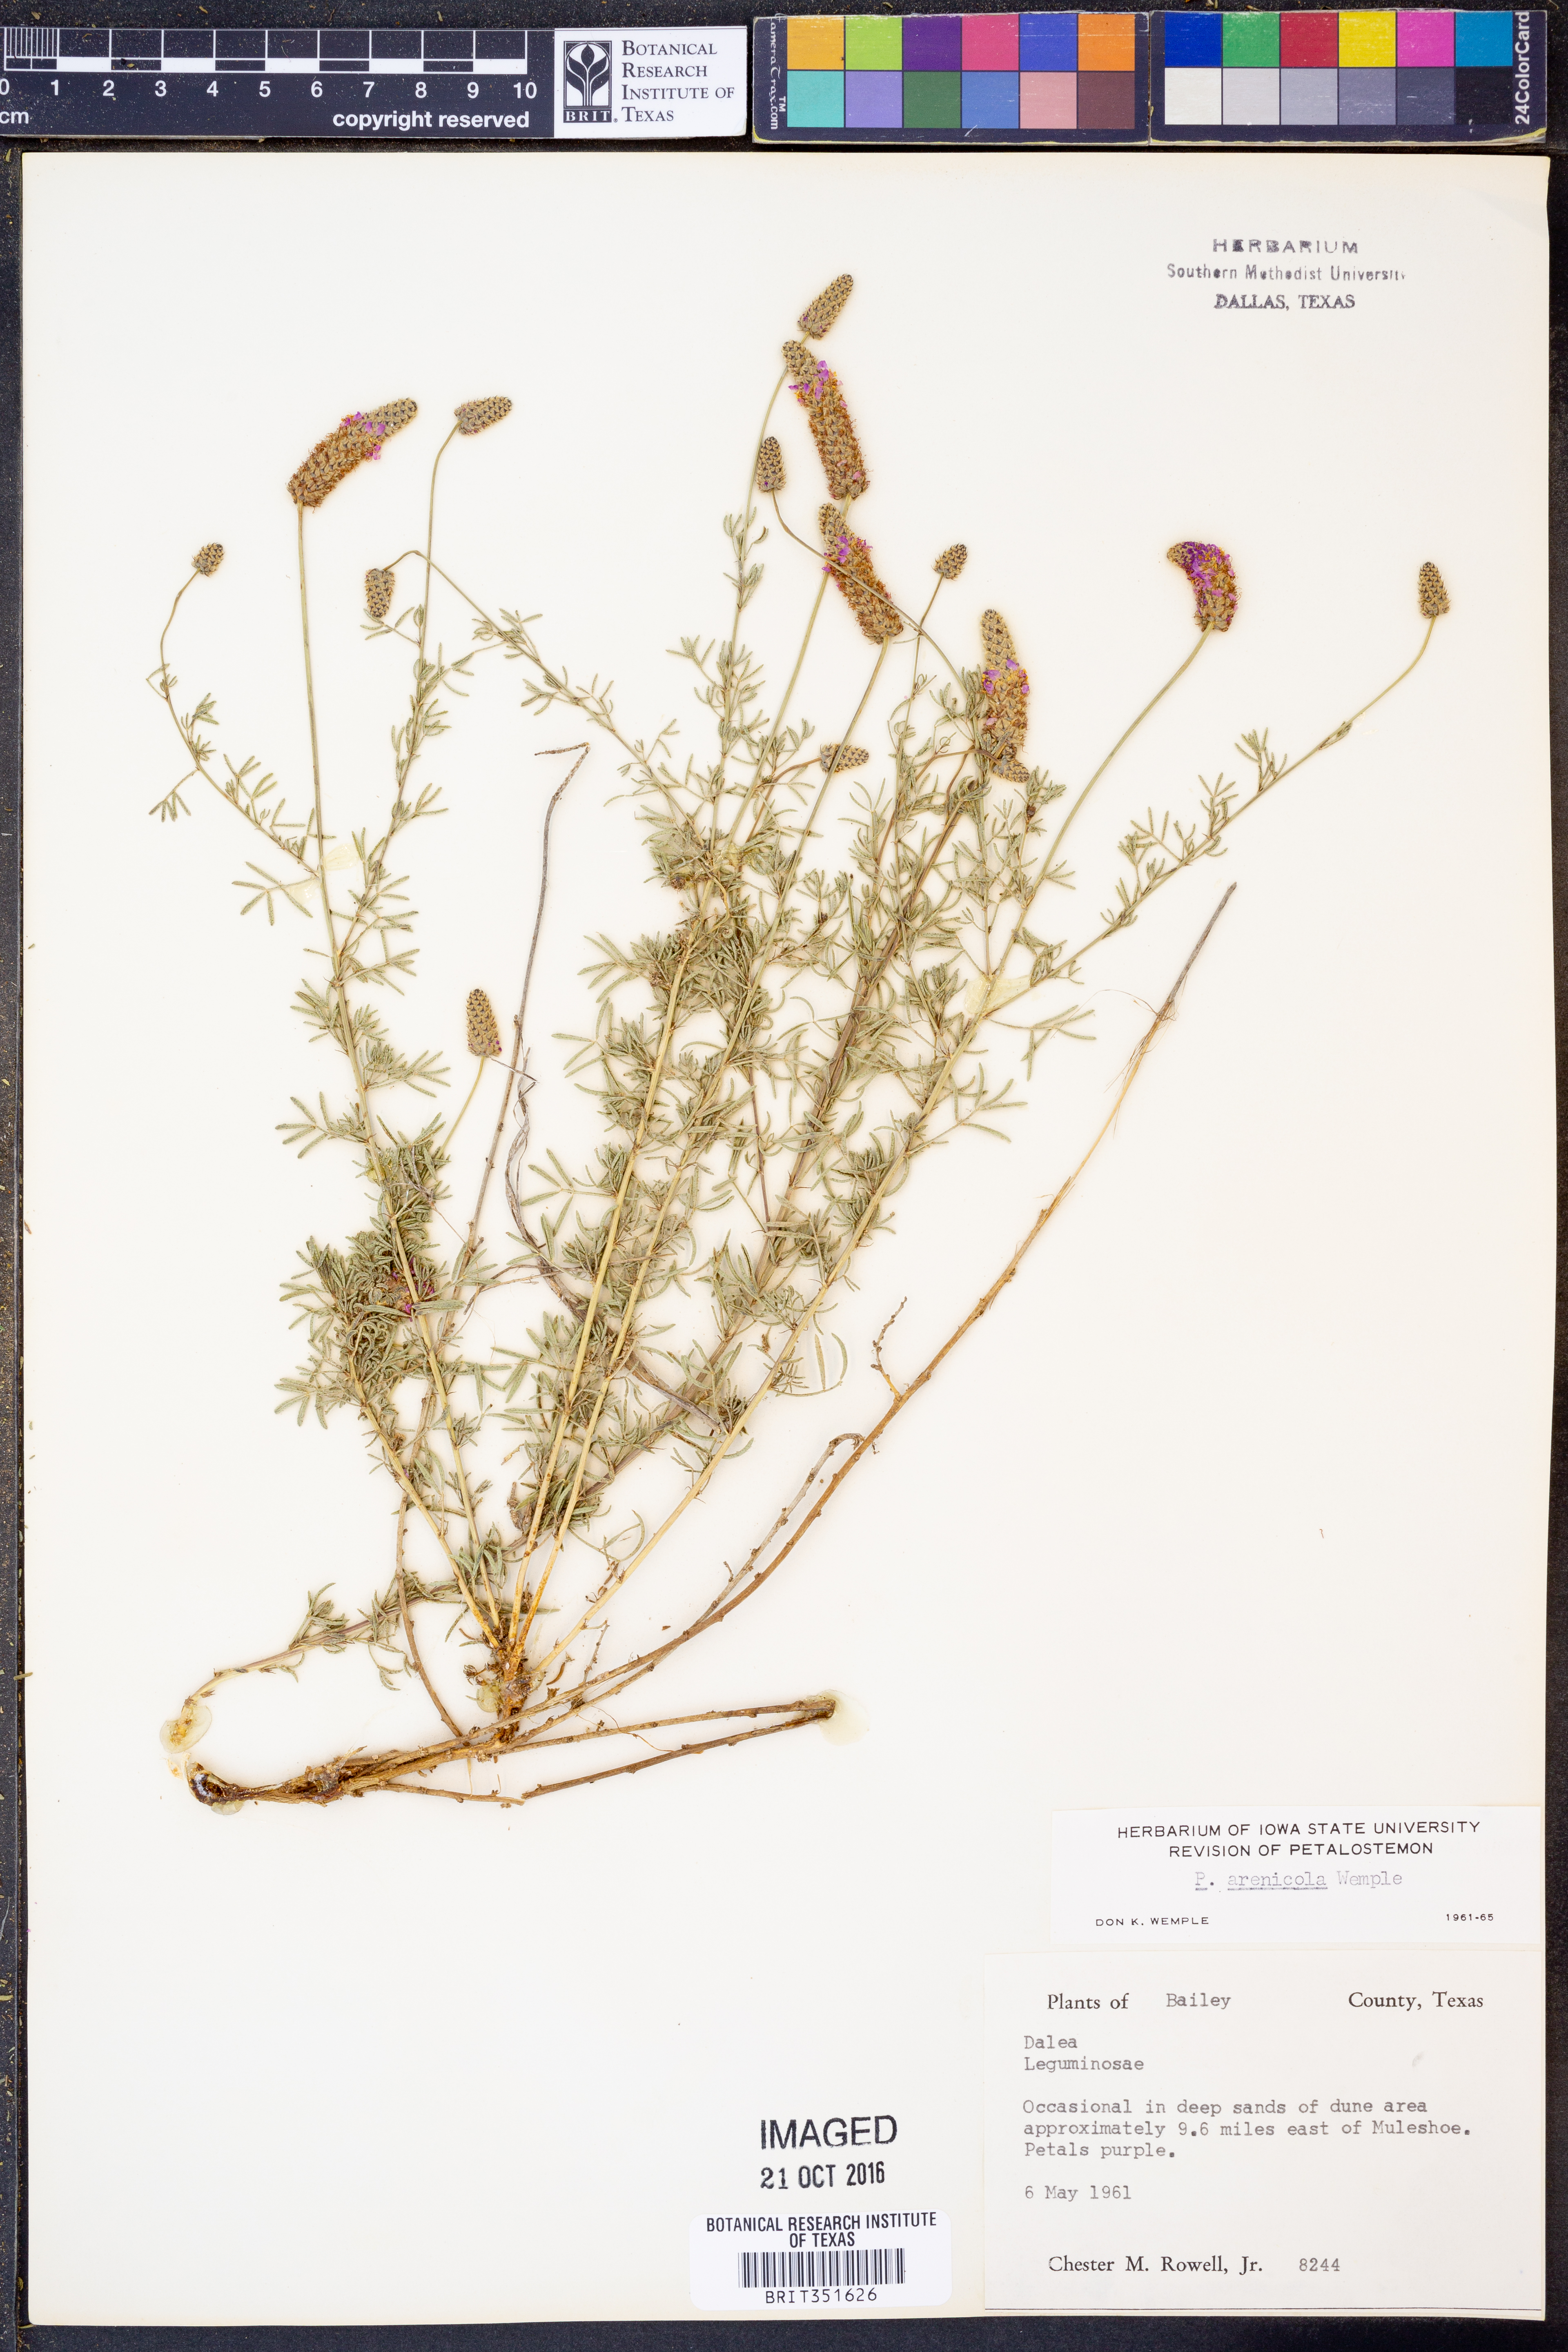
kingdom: Plantae
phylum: Tracheophyta
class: Magnoliopsida
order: Fabales
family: Fabaceae
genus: Dalea
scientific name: Dalea purpurea
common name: Purple prairie-clover
